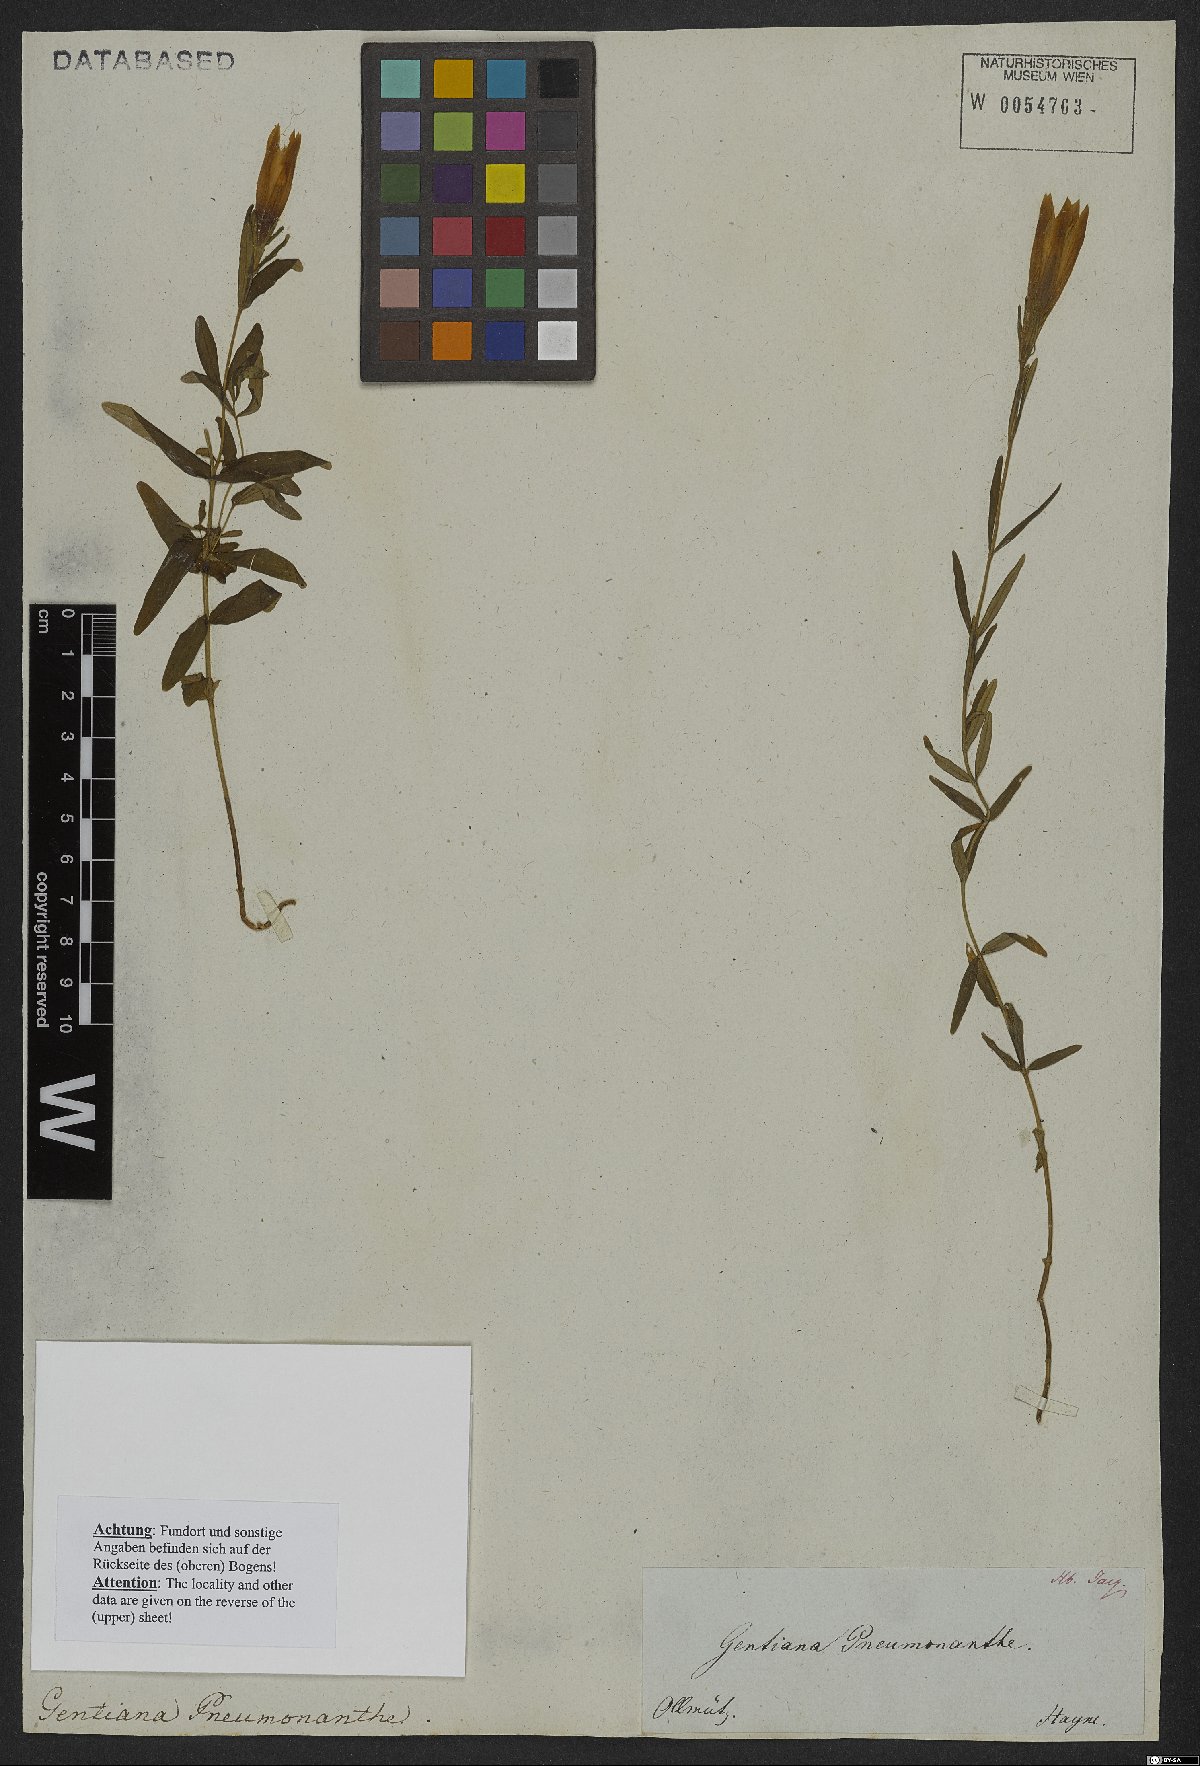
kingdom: Plantae
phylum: Tracheophyta
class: Magnoliopsida
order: Gentianales
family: Gentianaceae
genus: Gentiana
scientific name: Gentiana pneumonanthe
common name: Marsh gentian
